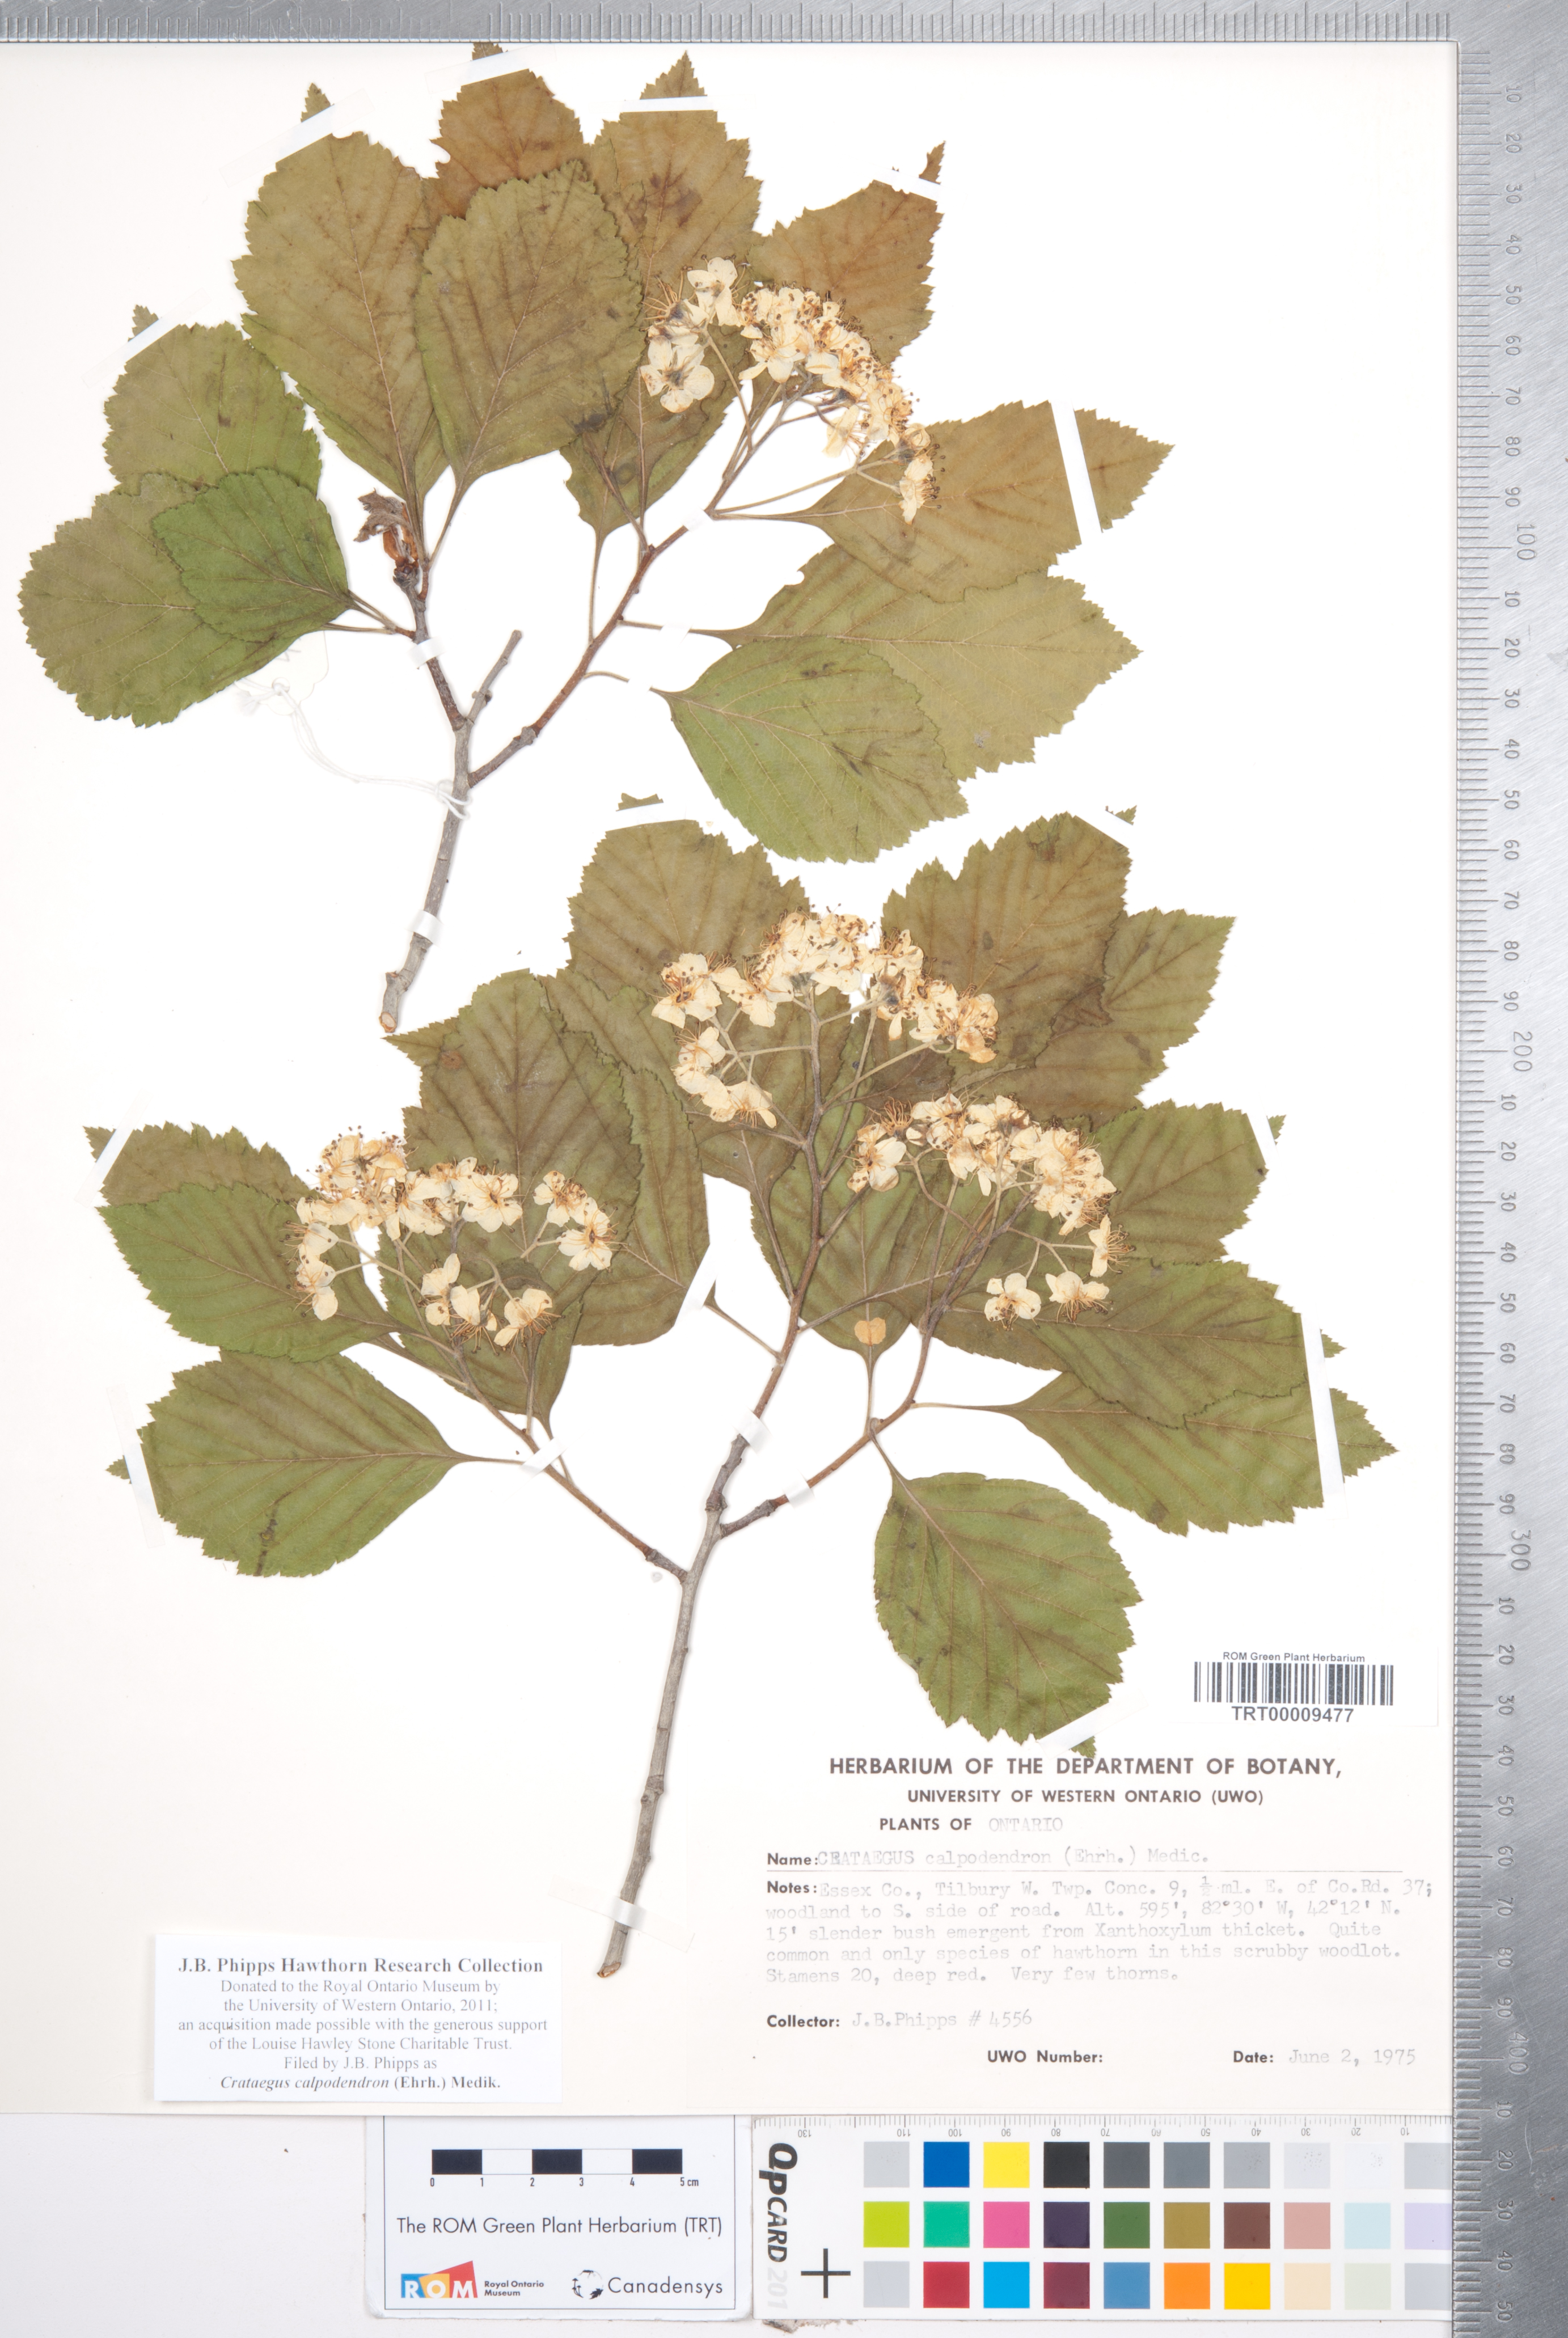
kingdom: Plantae
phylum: Tracheophyta
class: Magnoliopsida
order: Rosales
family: Rosaceae
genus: Crataegus
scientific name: Crataegus calpodendron
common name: Pear hawthorn
